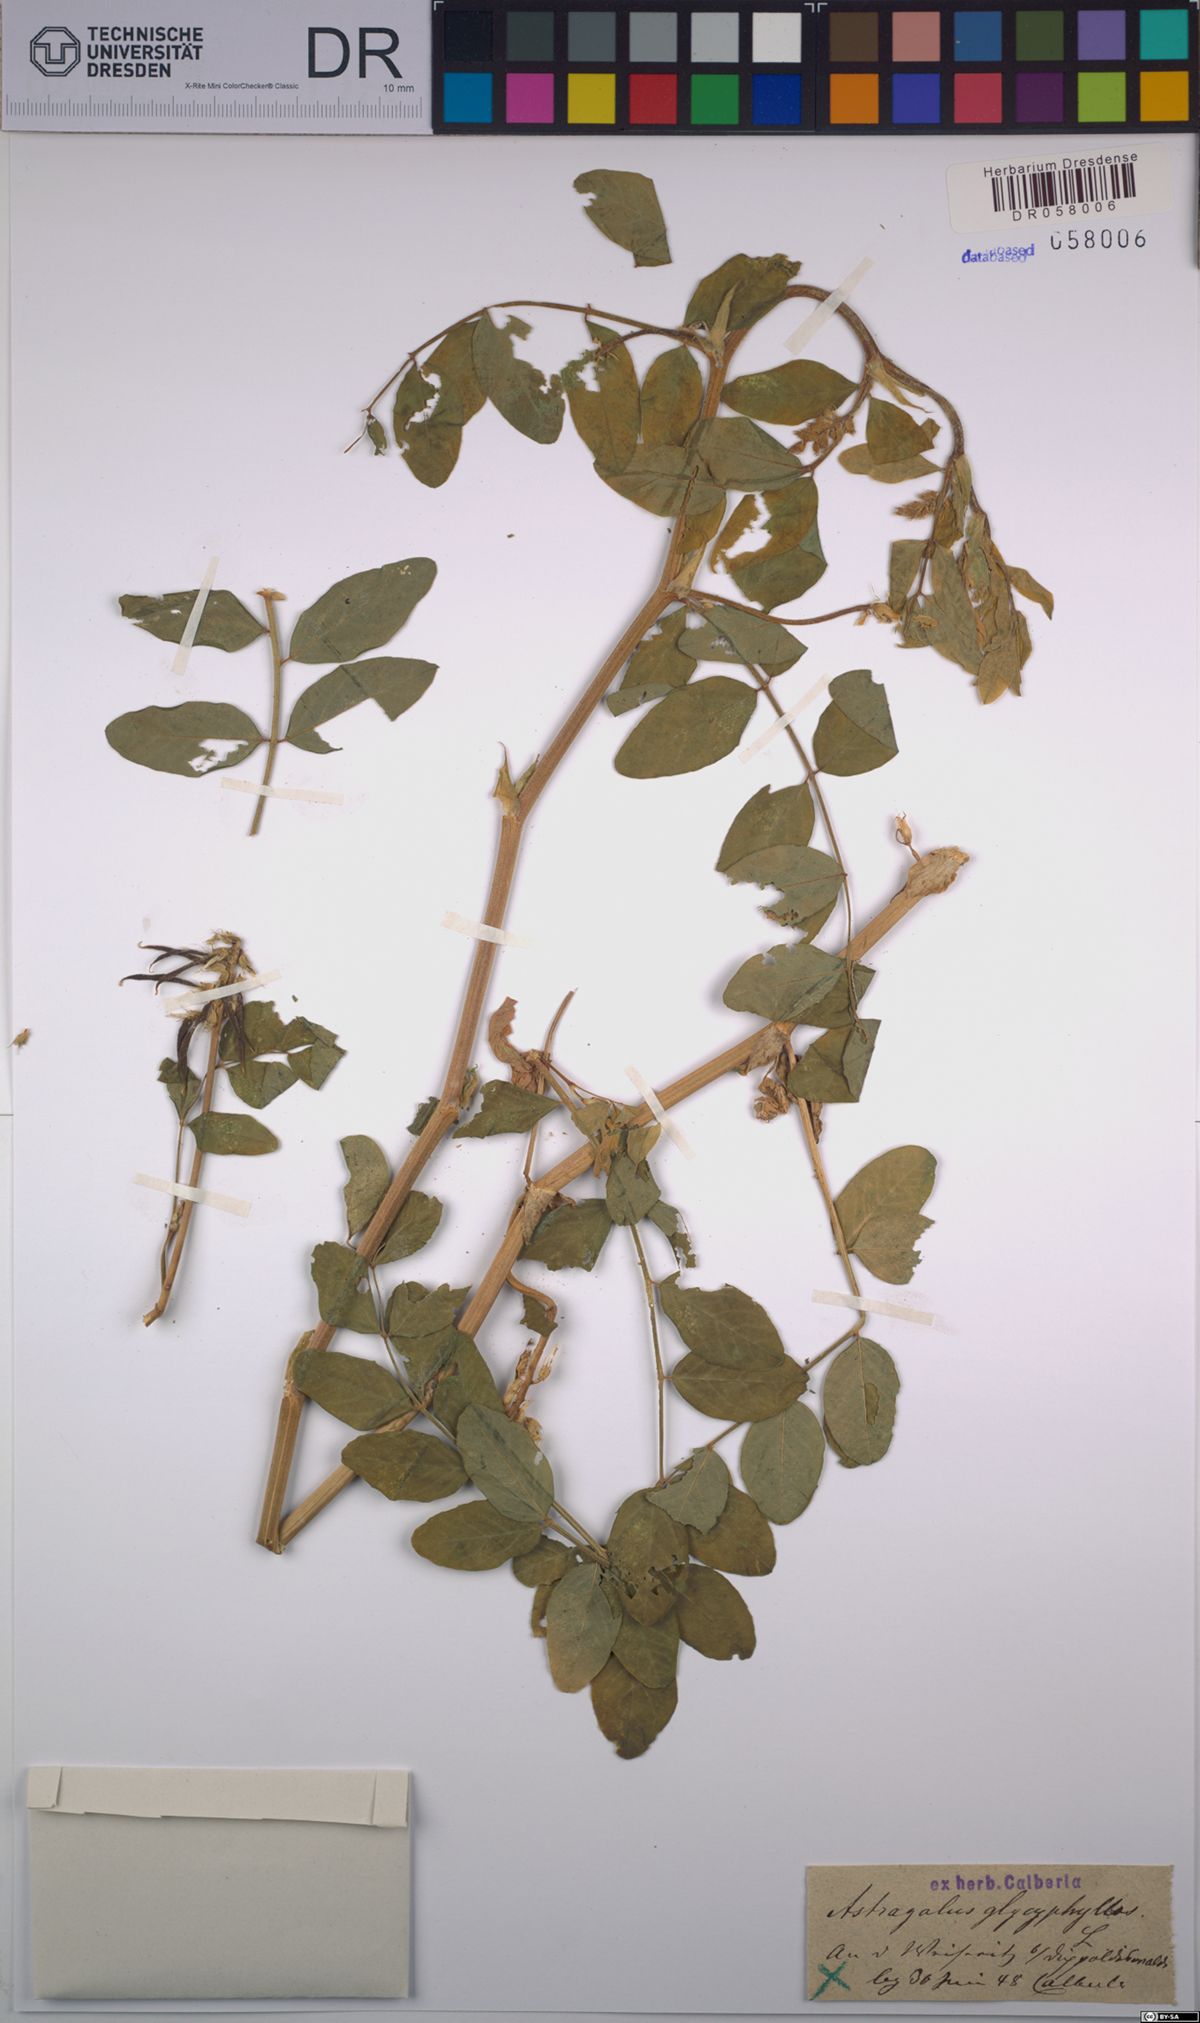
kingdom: Plantae
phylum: Tracheophyta
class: Magnoliopsida
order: Fabales
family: Fabaceae
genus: Astragalus
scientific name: Astragalus glycyphyllos
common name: Wild liquorice
